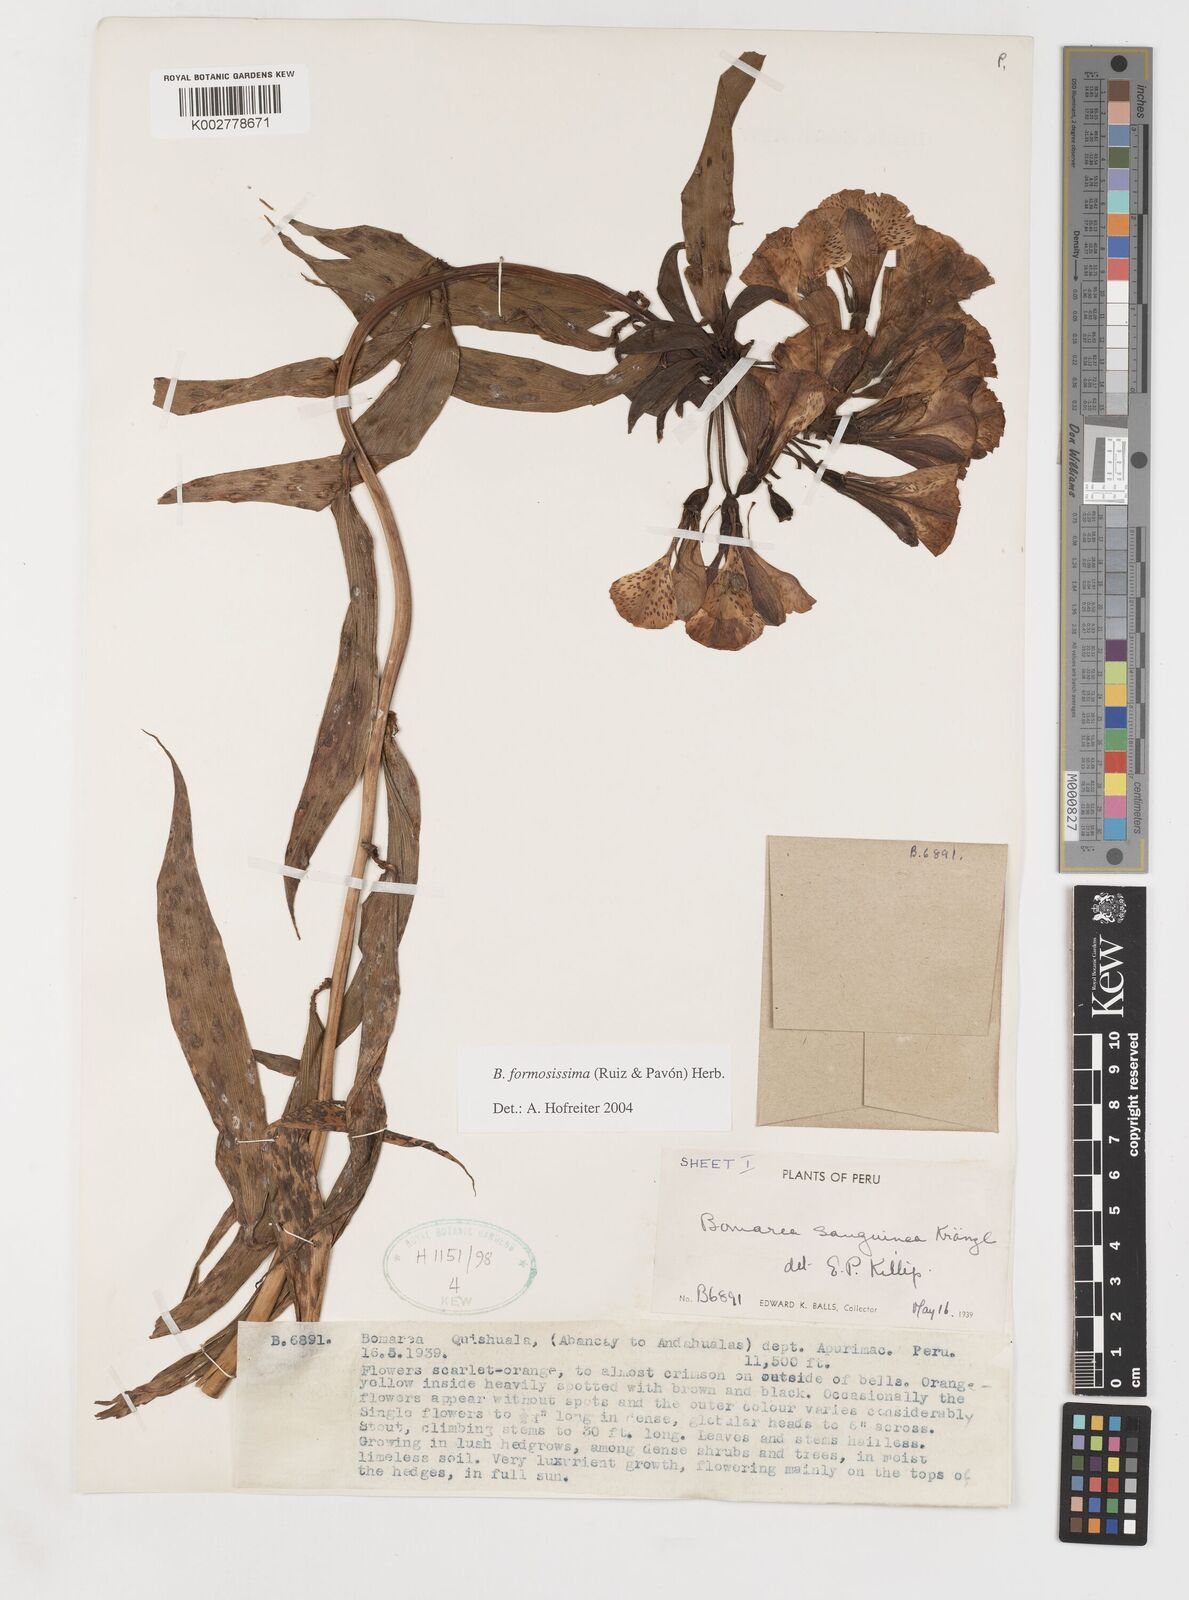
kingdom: Plantae
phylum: Tracheophyta
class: Liliopsida
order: Liliales
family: Alstroemeriaceae
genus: Bomarea
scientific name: Bomarea formosissima
